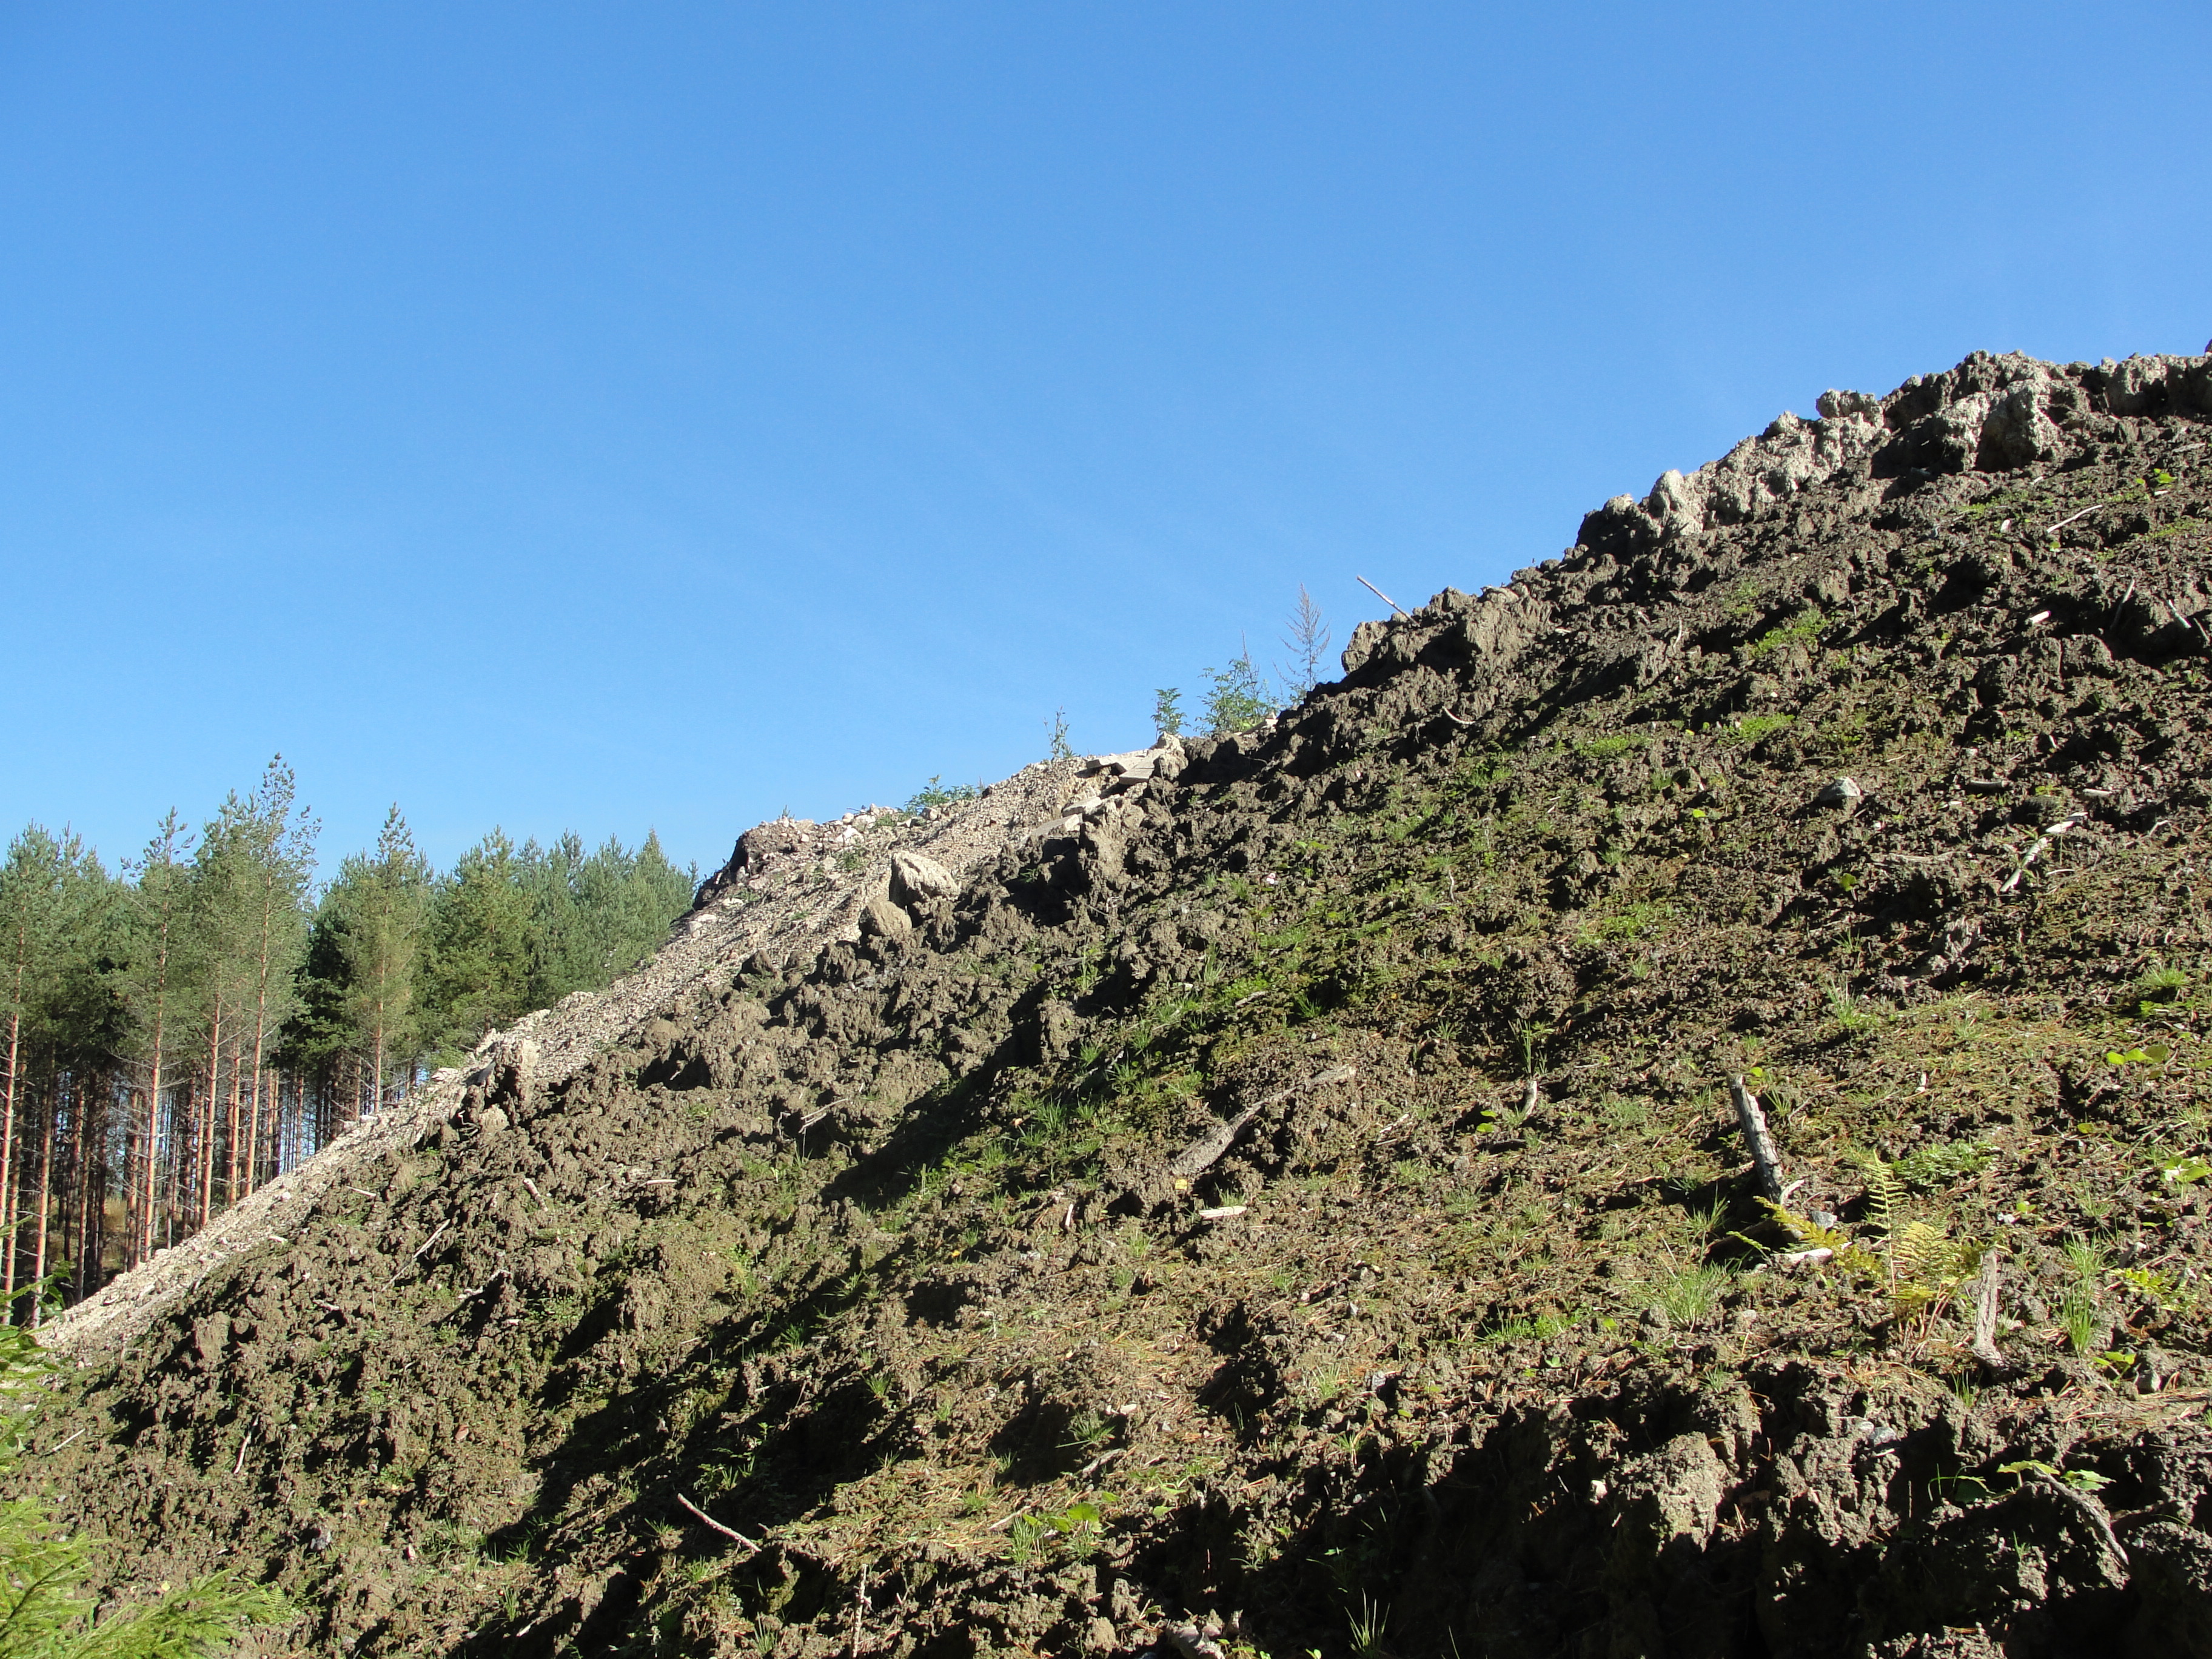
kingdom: Plantae
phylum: Tracheophyta
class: Magnoliopsida
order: Ericales
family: Balsaminaceae
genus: Impatiens
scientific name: Impatiens glandulifera
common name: Himalayan balsam
